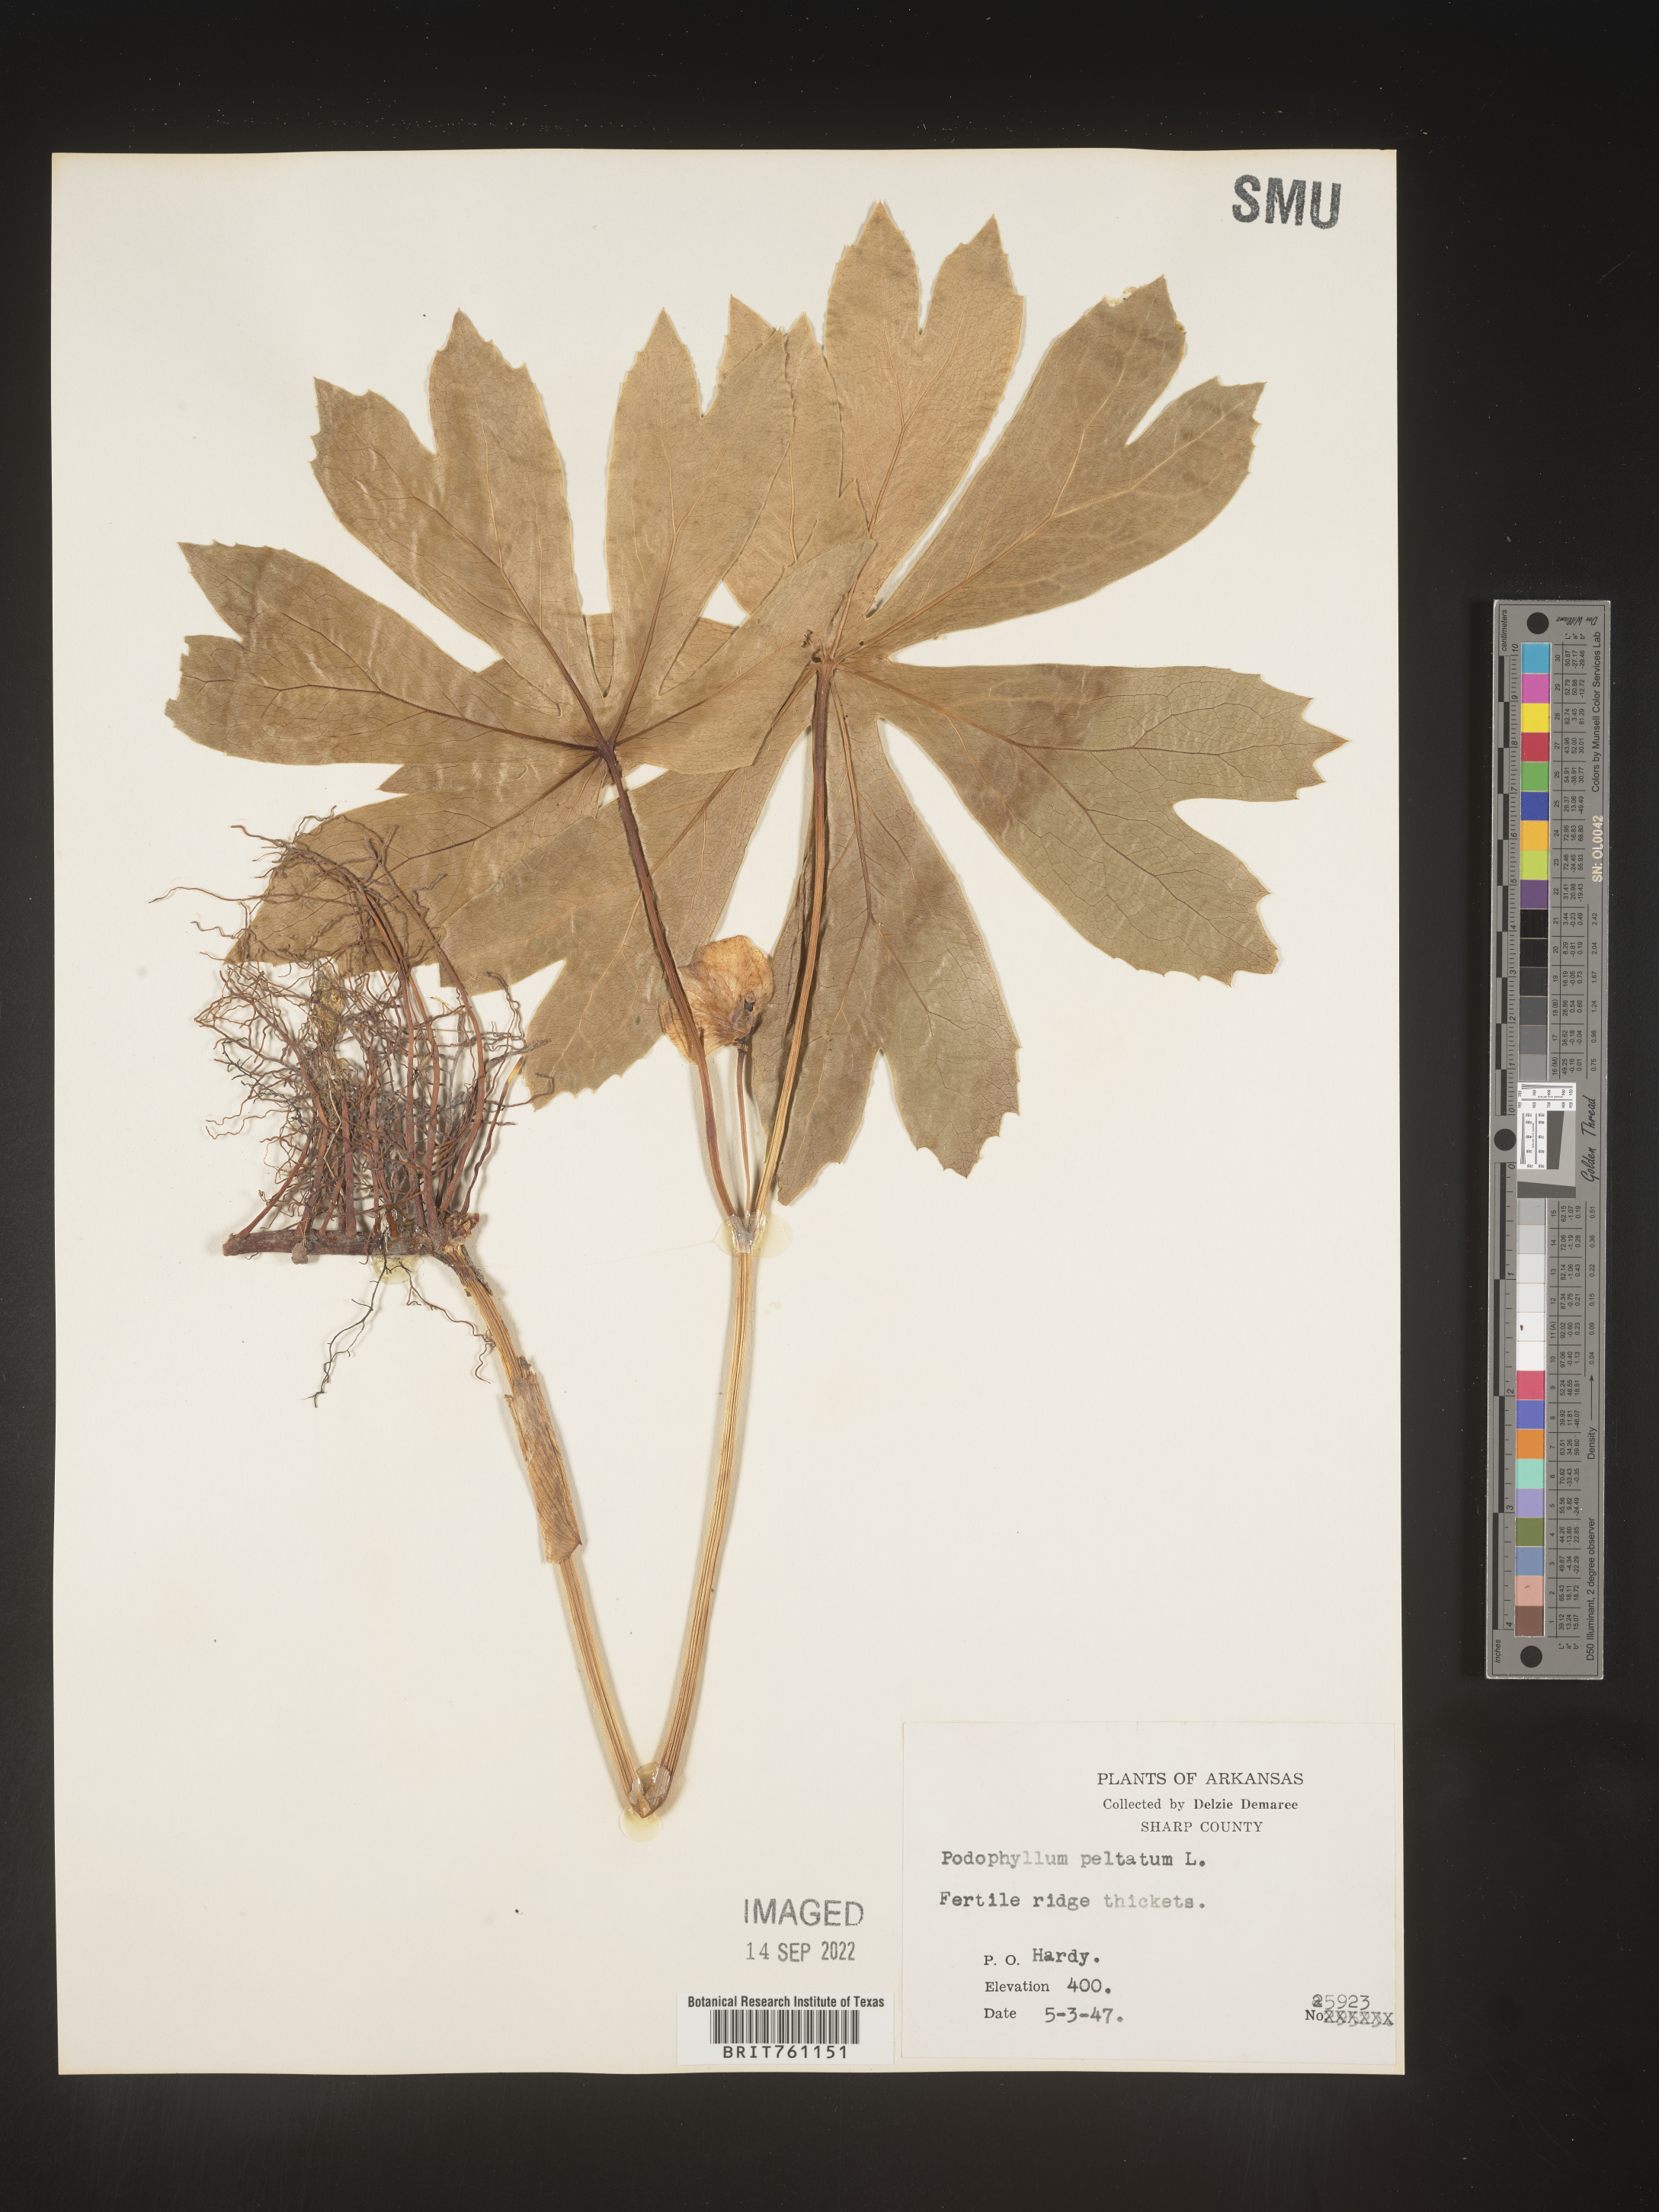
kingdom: Plantae
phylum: Tracheophyta
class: Magnoliopsida
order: Ranunculales
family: Berberidaceae
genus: Podophyllum
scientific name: Podophyllum peltatum
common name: Wild mandrake
